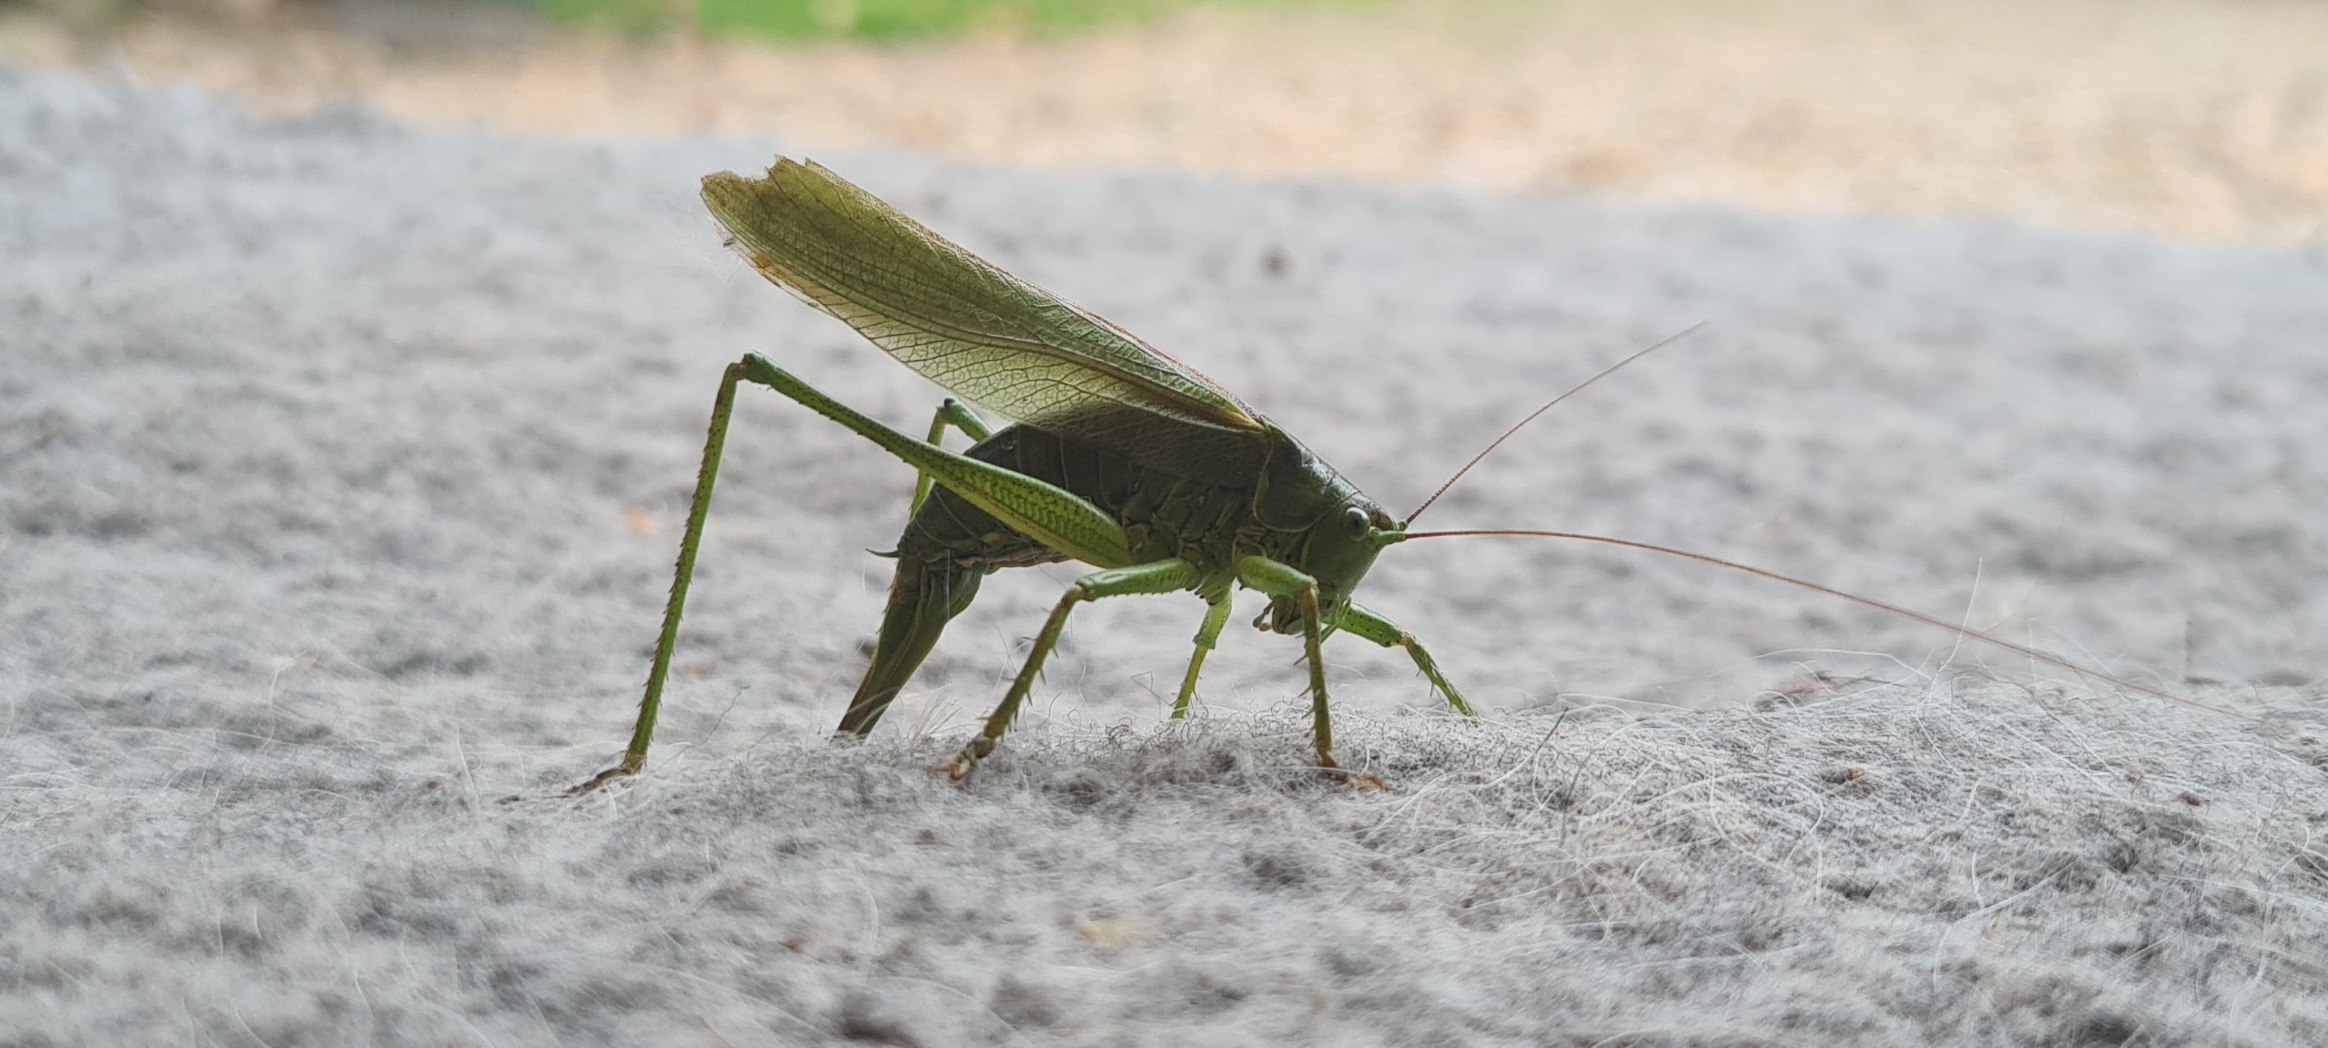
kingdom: Animalia
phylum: Arthropoda
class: Insecta
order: Orthoptera
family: Tettigoniidae
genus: Tettigonia
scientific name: Tettigonia viridissima
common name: Stor grøn løvgræshoppe
